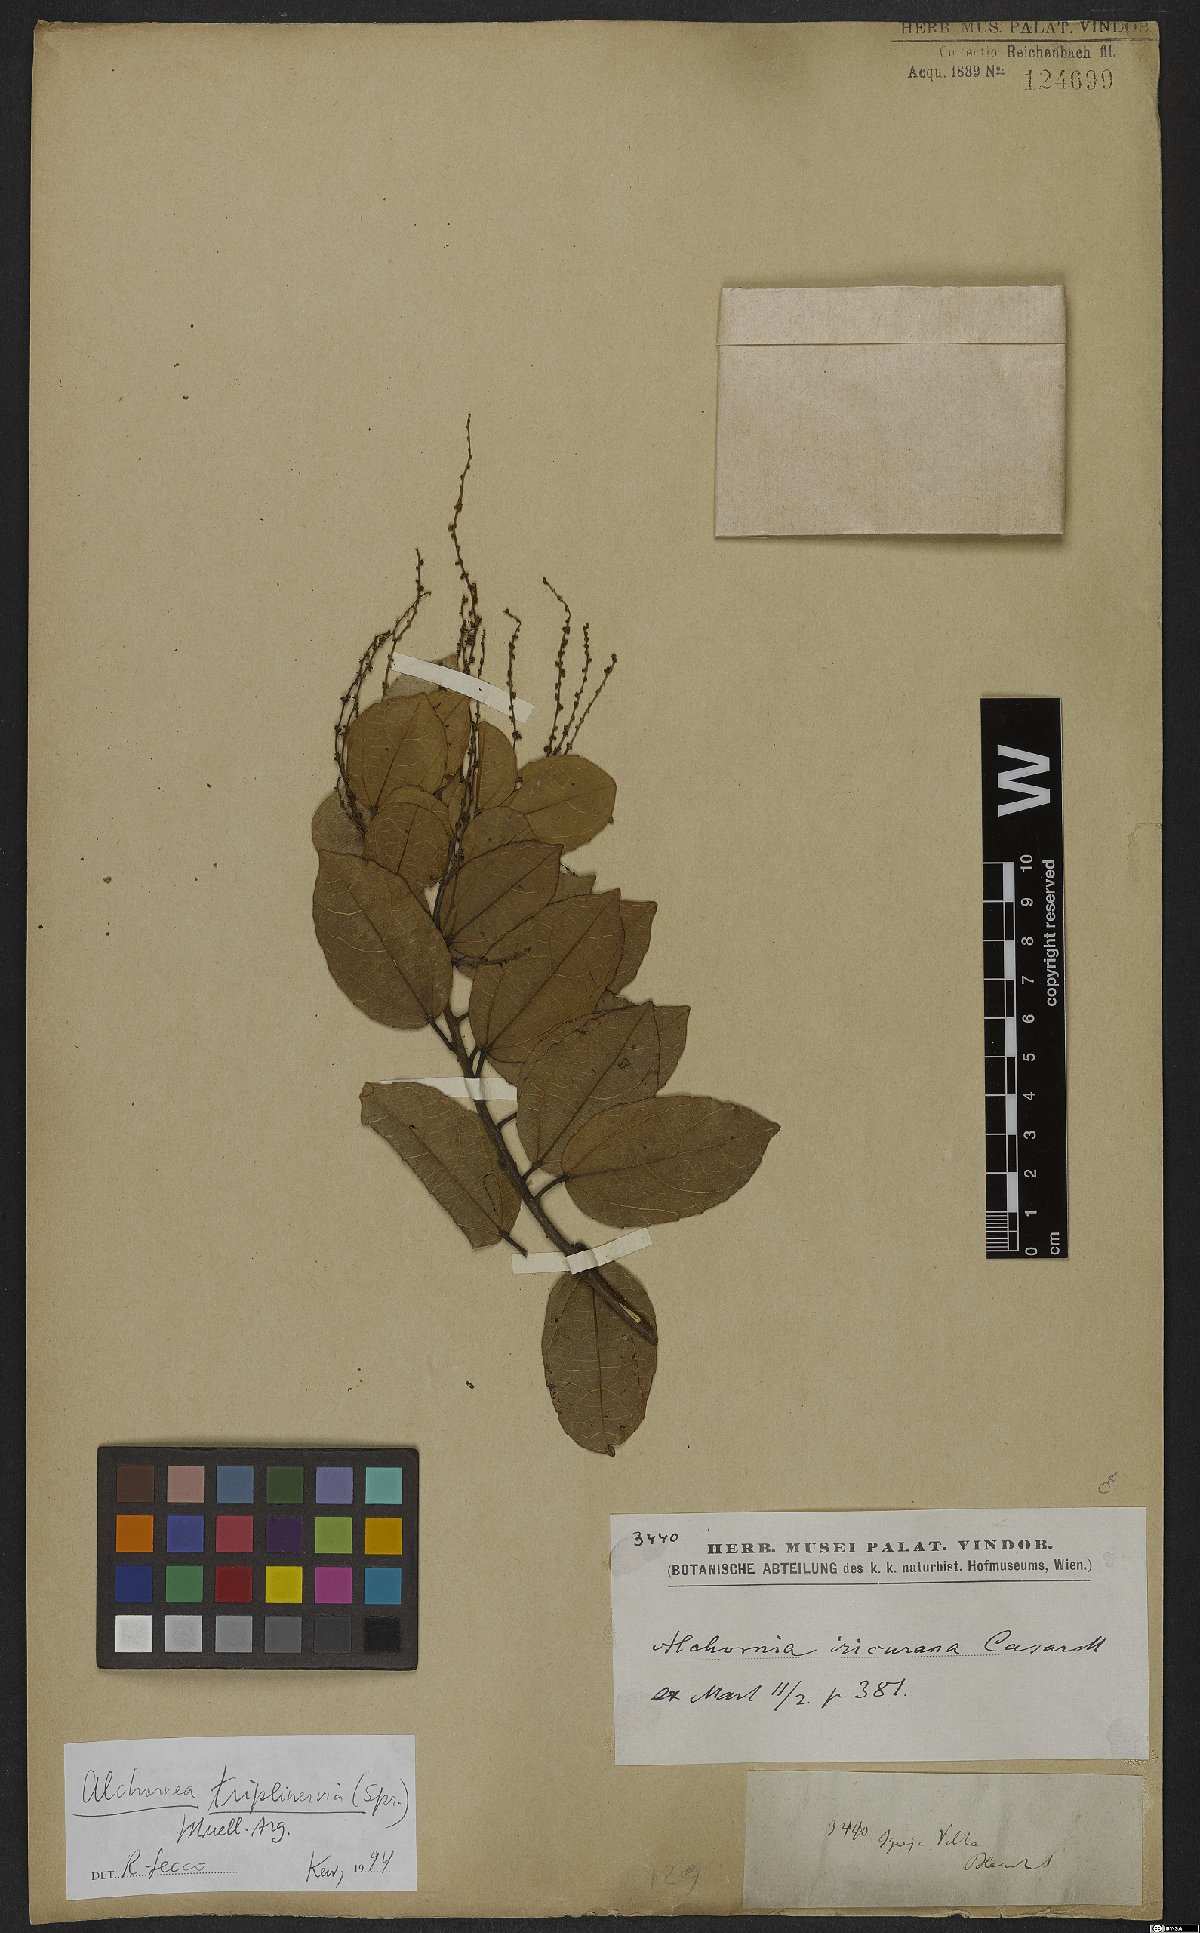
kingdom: Plantae
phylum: Tracheophyta
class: Magnoliopsida
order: Malpighiales
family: Euphorbiaceae
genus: Alchornea
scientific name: Alchornea triplinervia
